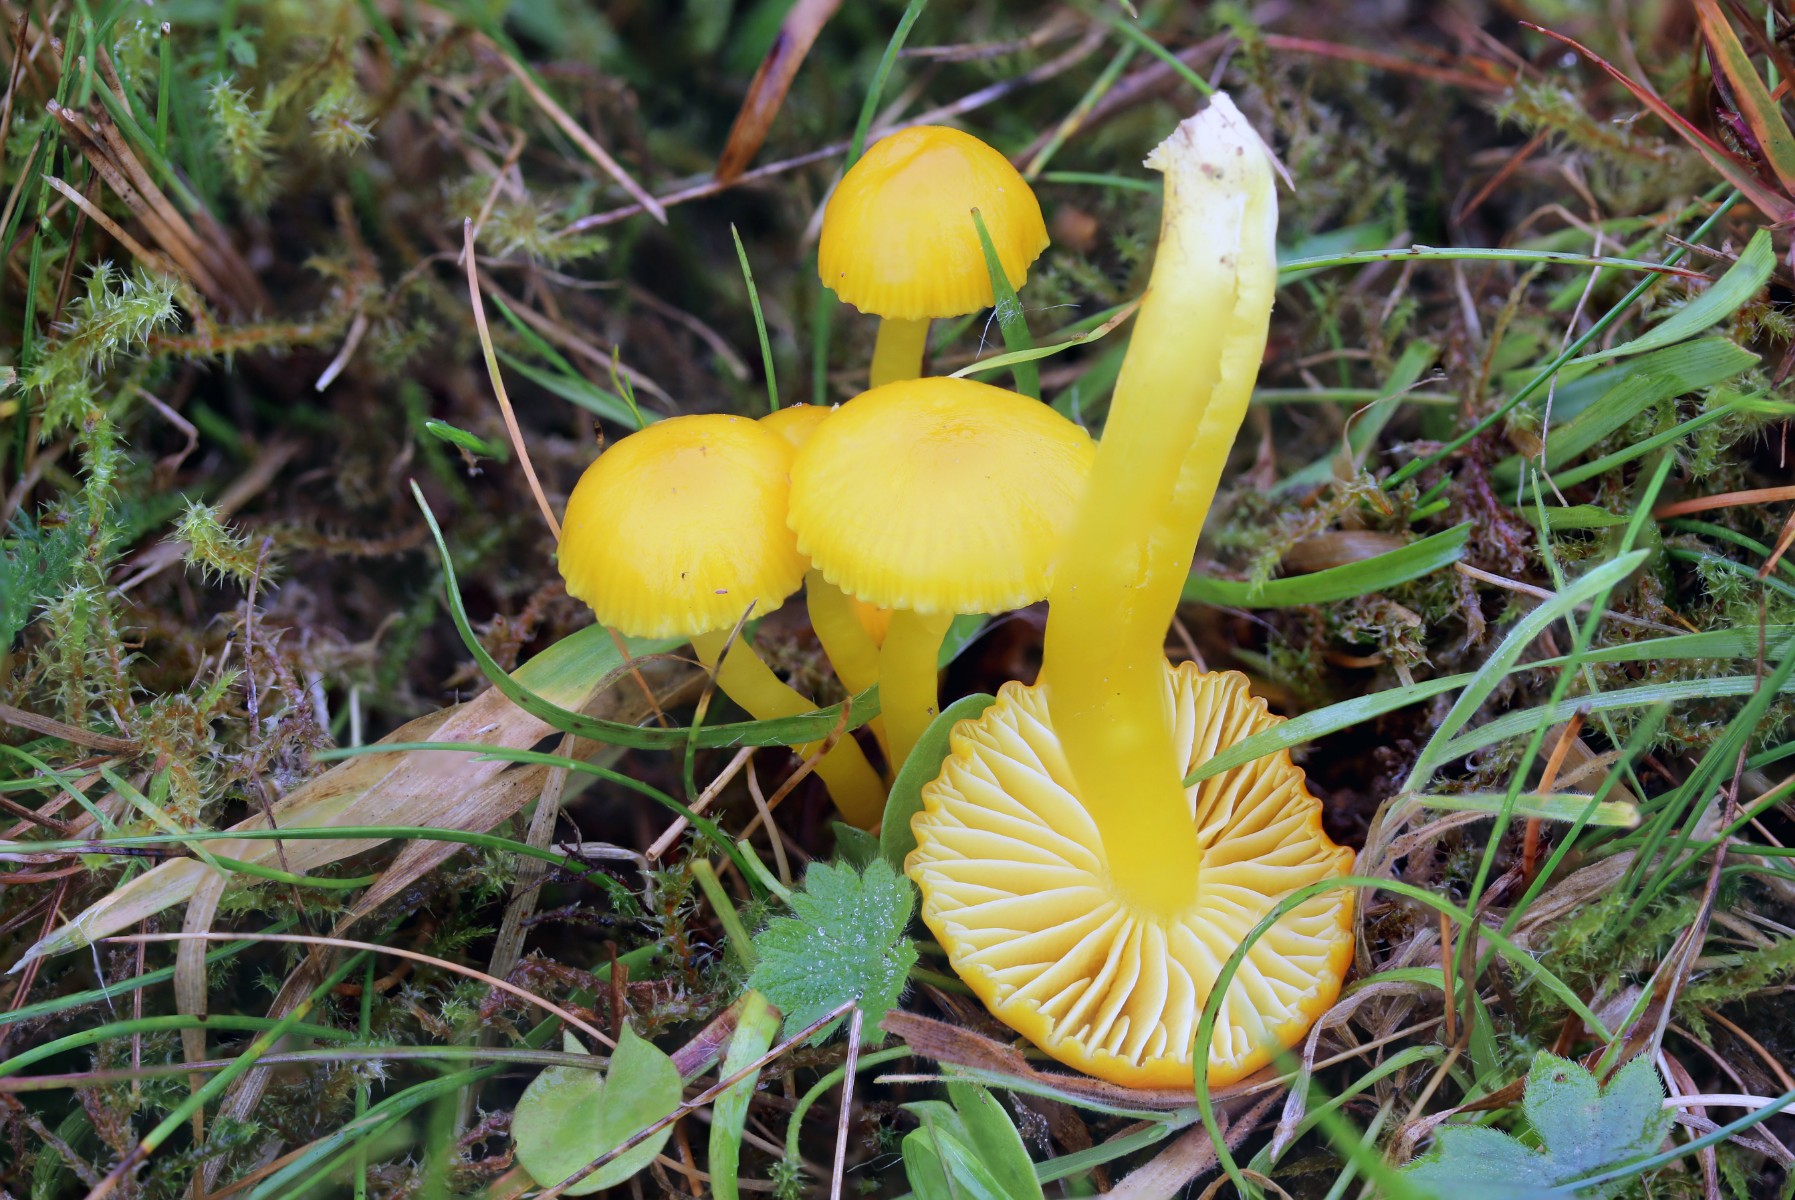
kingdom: Fungi
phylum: Basidiomycota
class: Agaricomycetes
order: Agaricales
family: Hygrophoraceae
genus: Hygrocybe
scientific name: Hygrocybe ceracea
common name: voksgul vokshat
